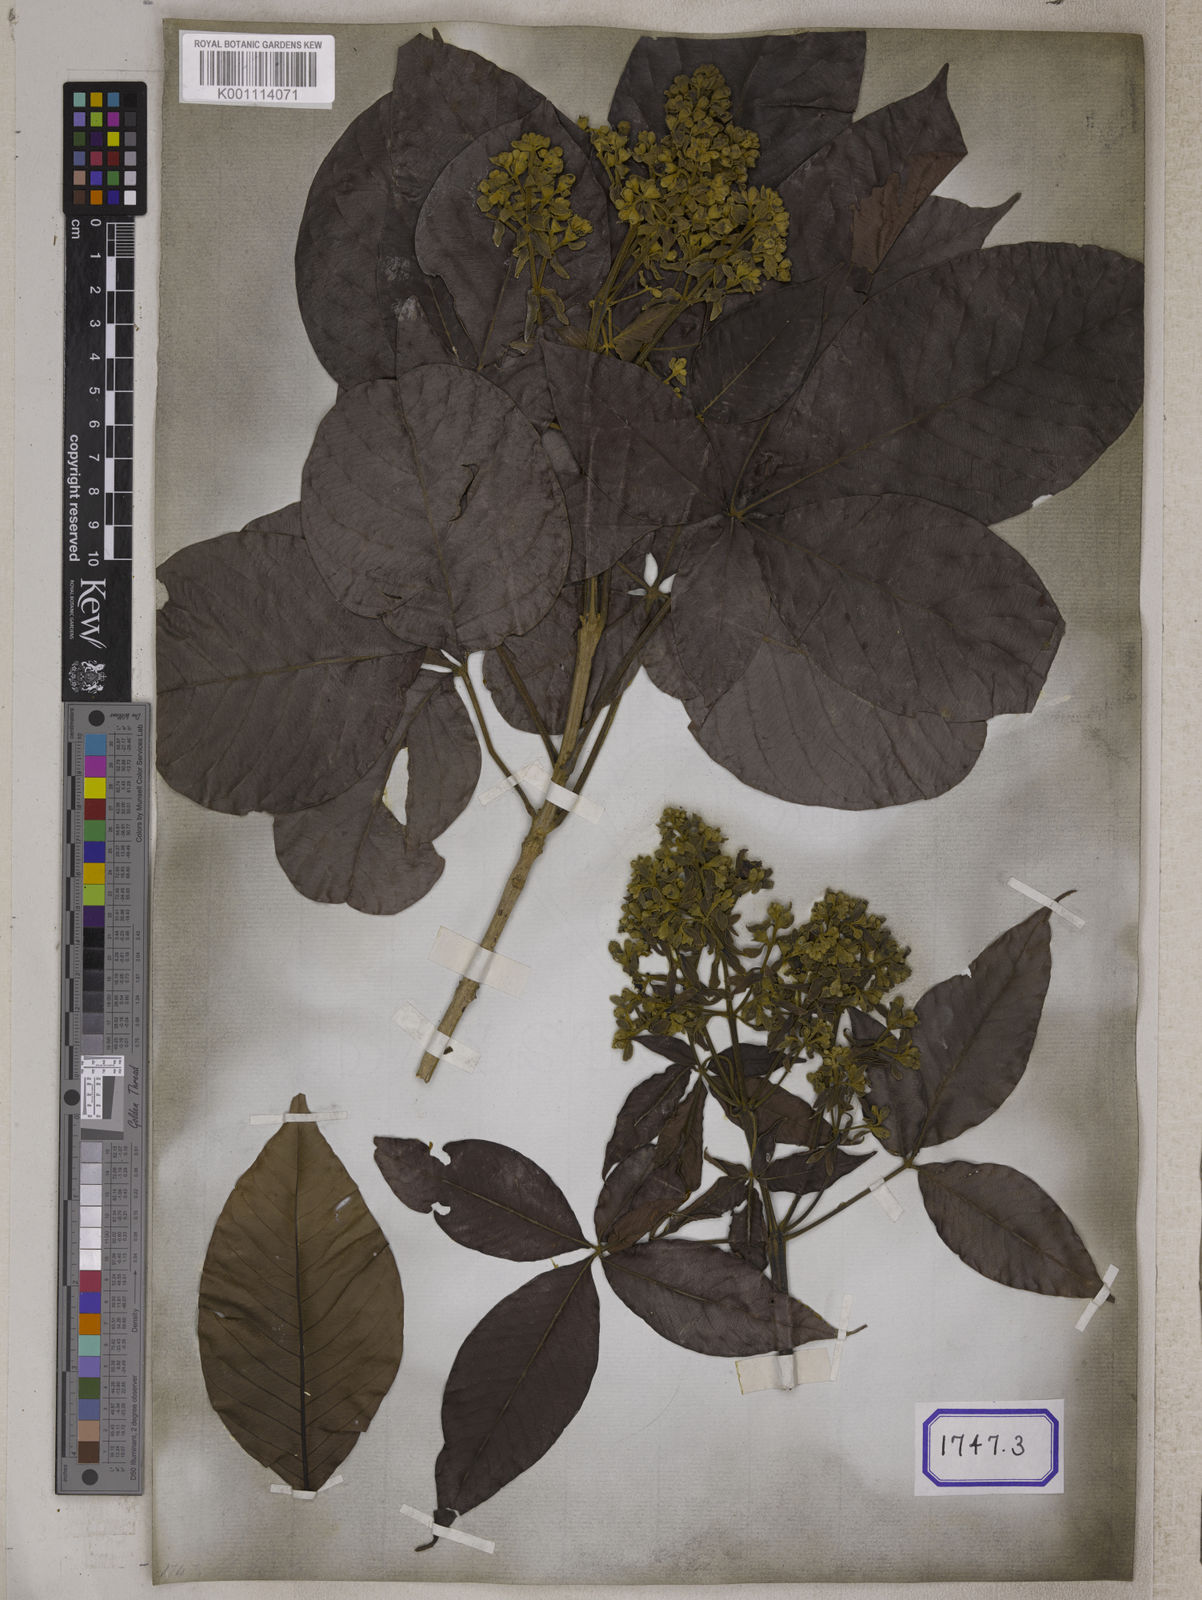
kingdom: Plantae
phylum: Tracheophyta
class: Magnoliopsida
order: Lamiales
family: Lamiaceae
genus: Vitex
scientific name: Vitex pinnata
